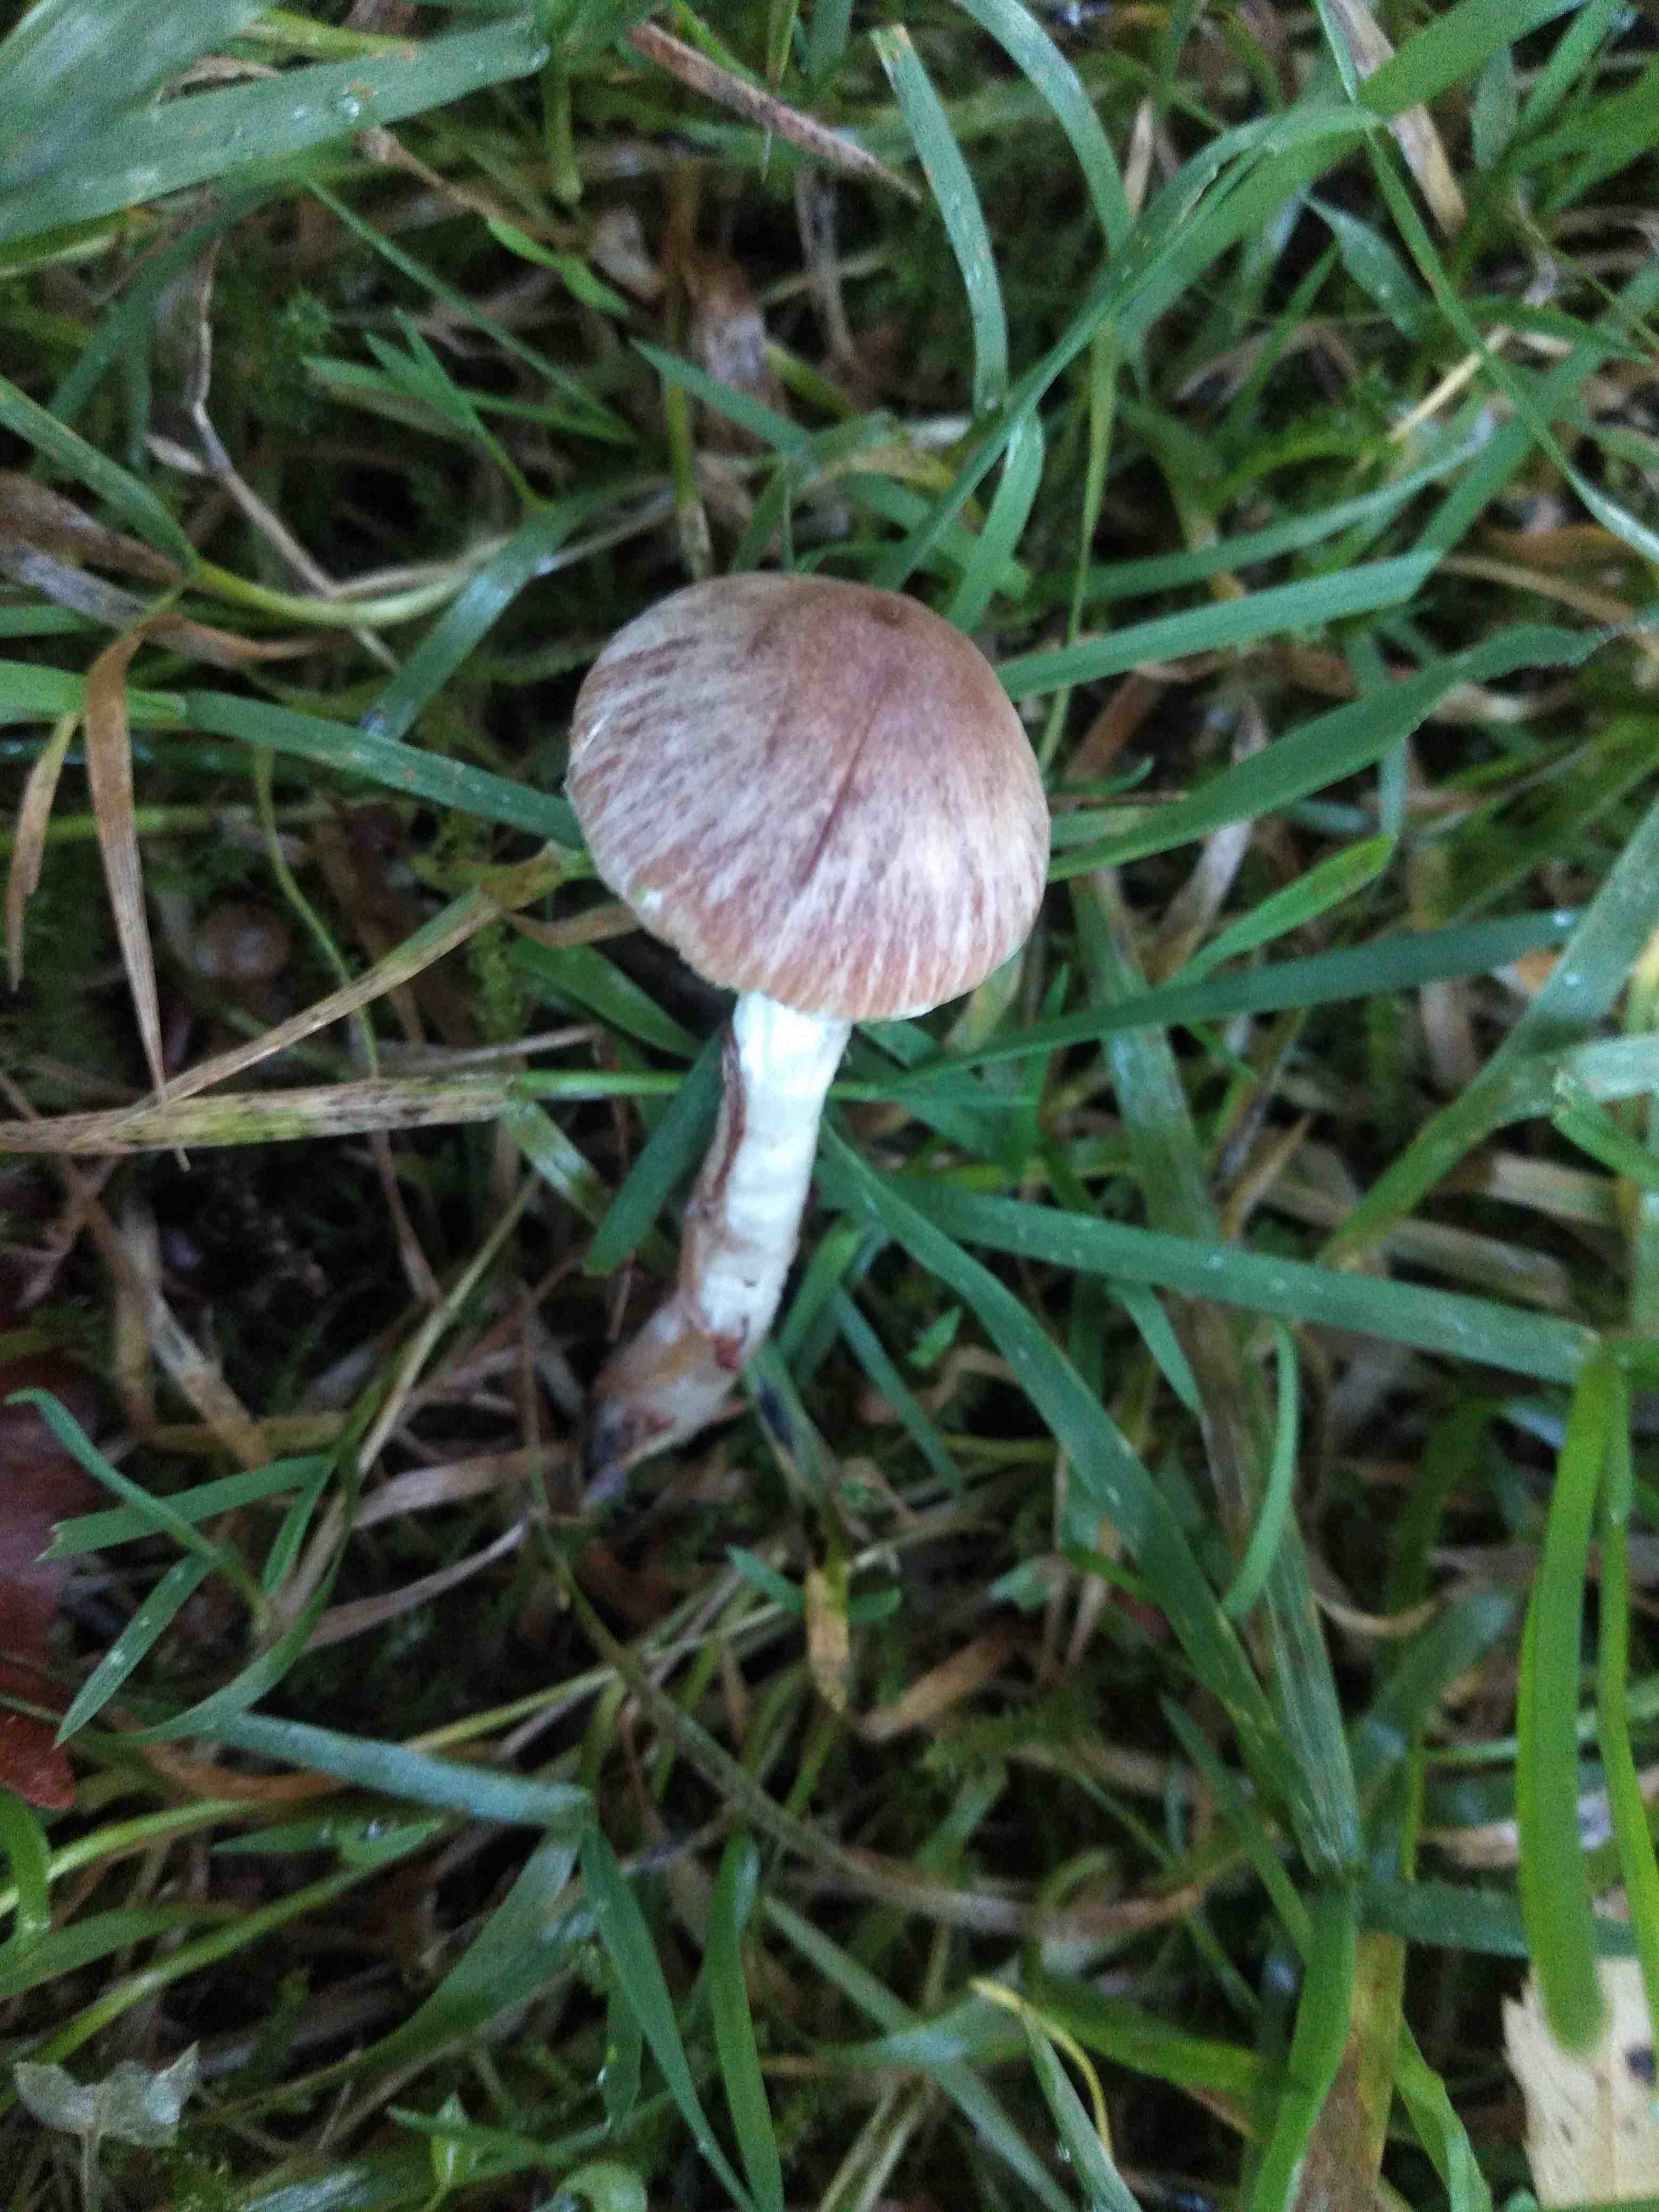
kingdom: Fungi
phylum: Basidiomycota
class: Agaricomycetes
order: Agaricales
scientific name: Agaricales
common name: champignonordenen
